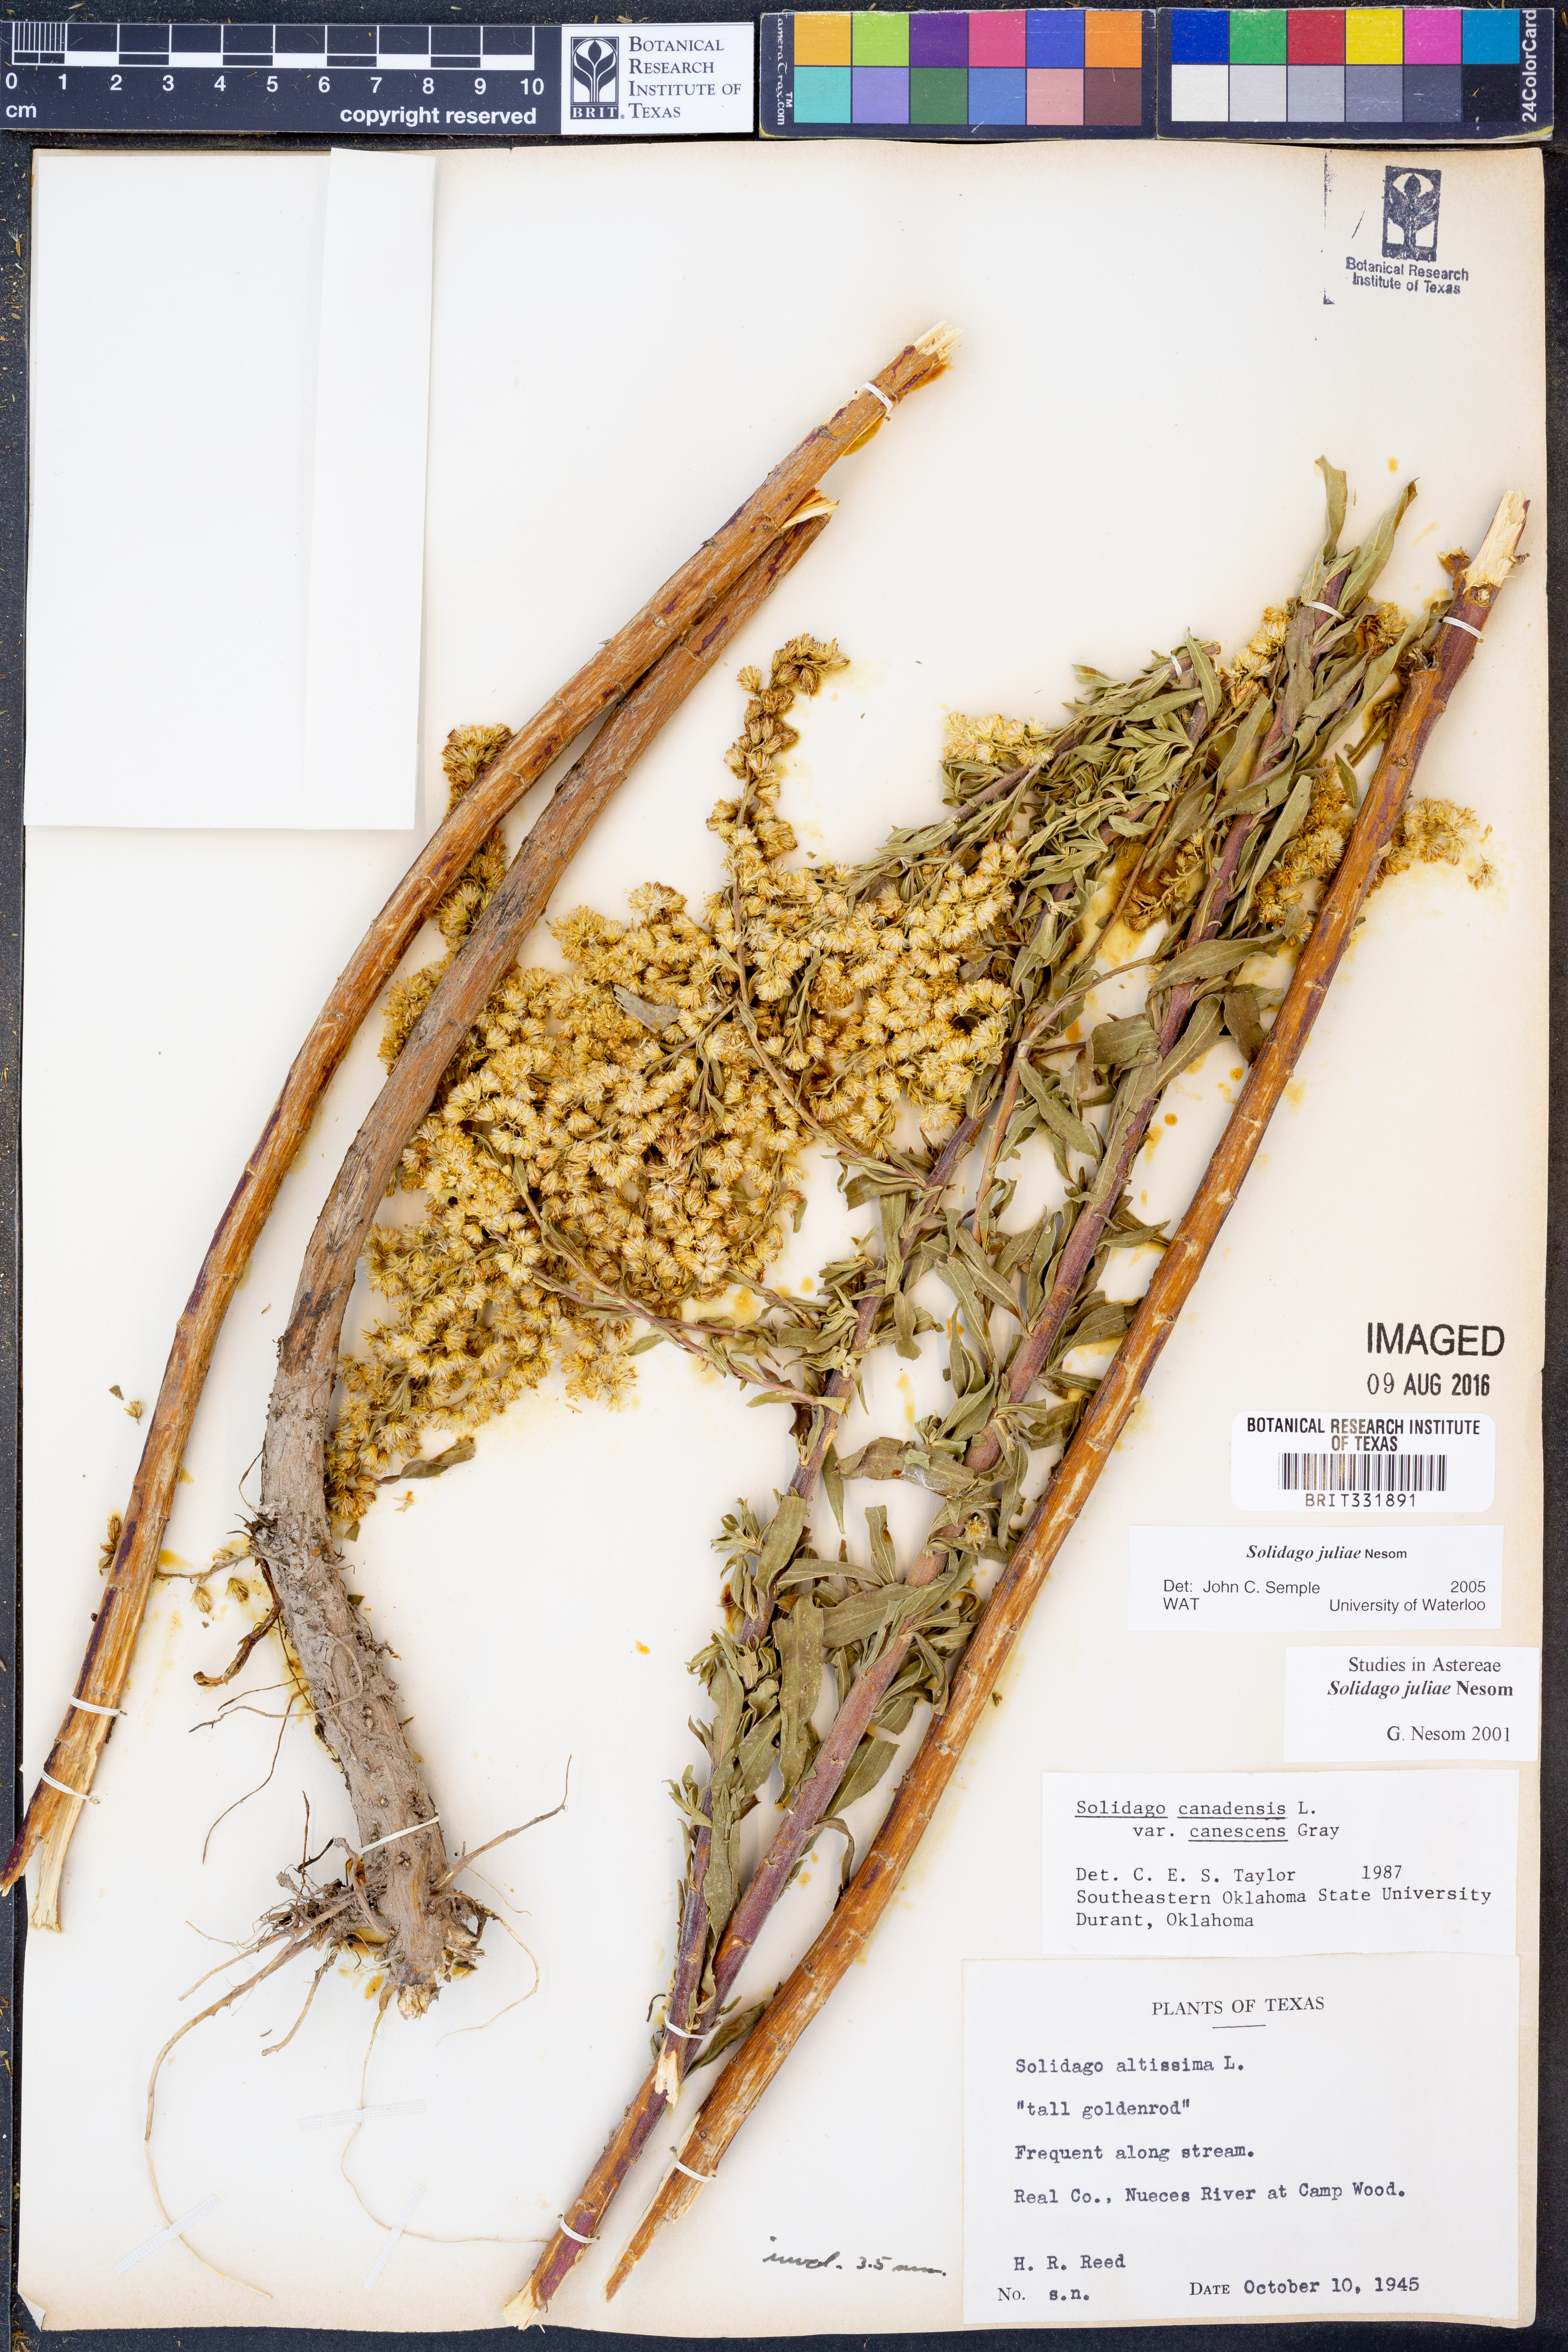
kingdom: Plantae
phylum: Tracheophyta
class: Magnoliopsida
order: Asterales
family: Asteraceae
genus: Solidago
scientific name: Solidago juliae
